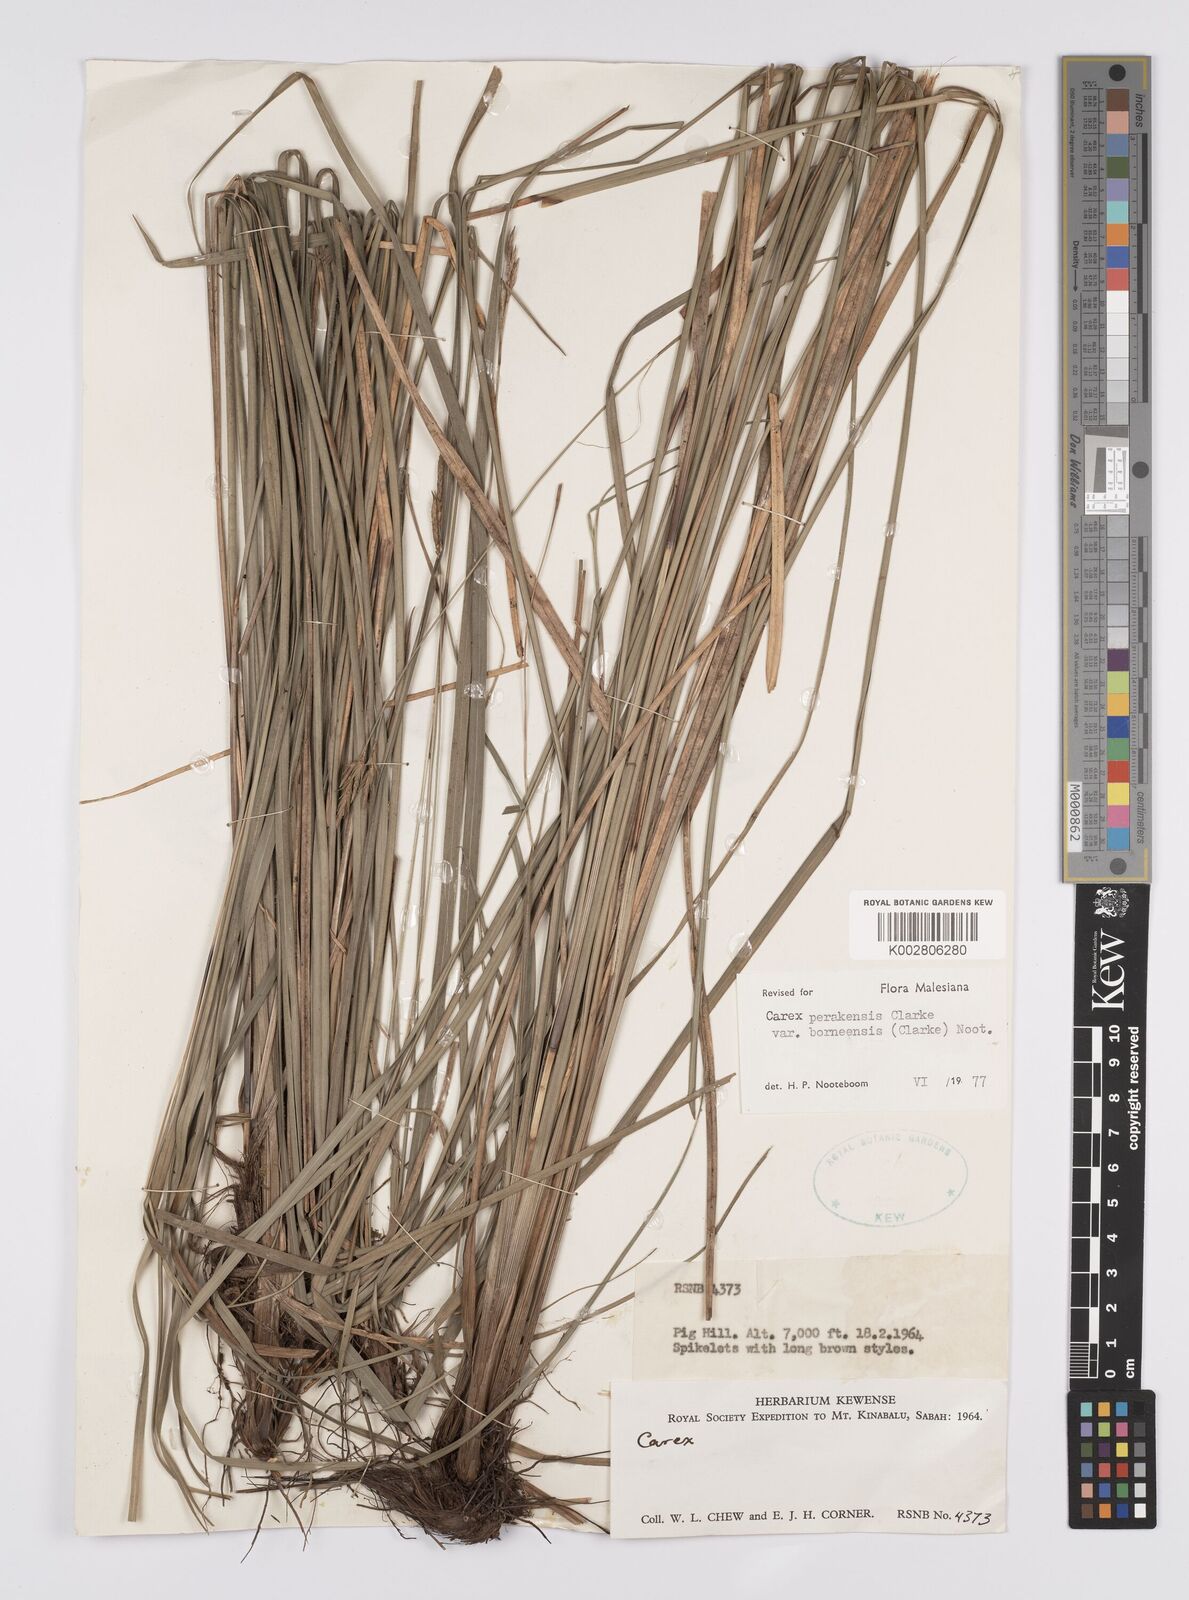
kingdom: Plantae
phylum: Tracheophyta
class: Liliopsida
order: Poales
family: Cyperaceae
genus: Carex
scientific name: Carex perakensis
